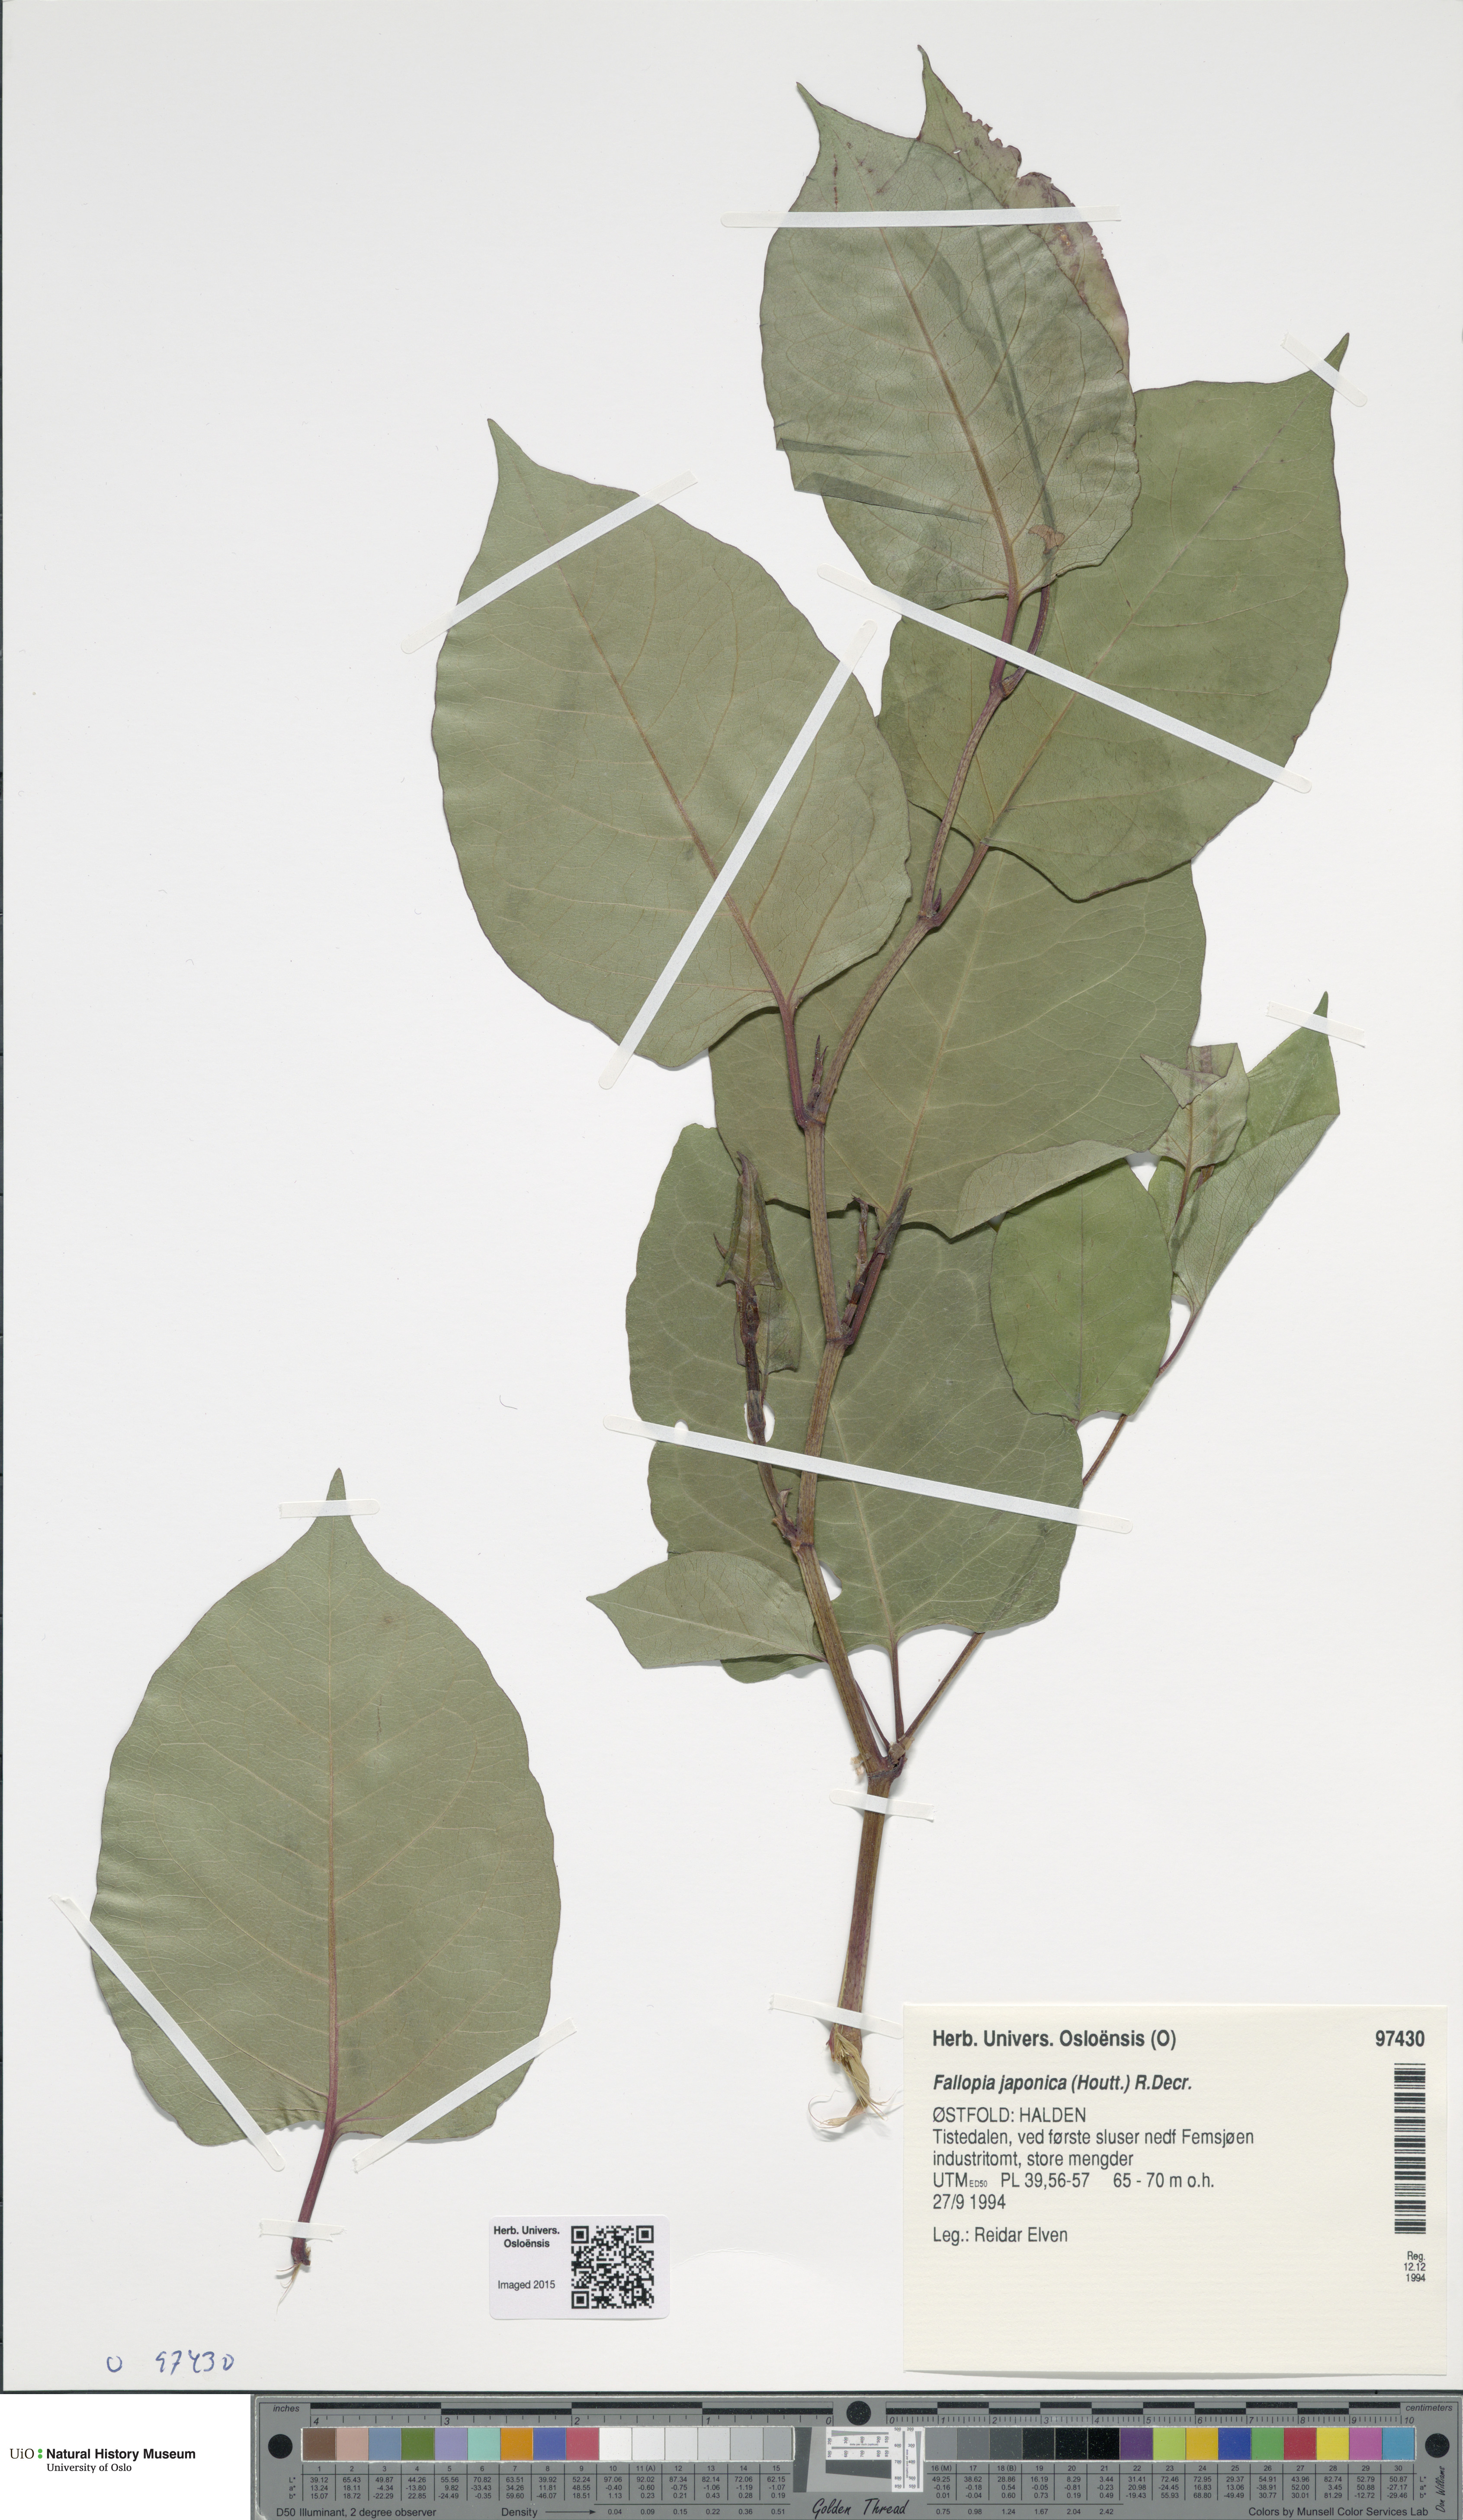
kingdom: Plantae
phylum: Tracheophyta
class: Magnoliopsida
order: Caryophyllales
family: Polygonaceae
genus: Reynoutria
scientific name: Reynoutria japonica
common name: Japanese knotweed
